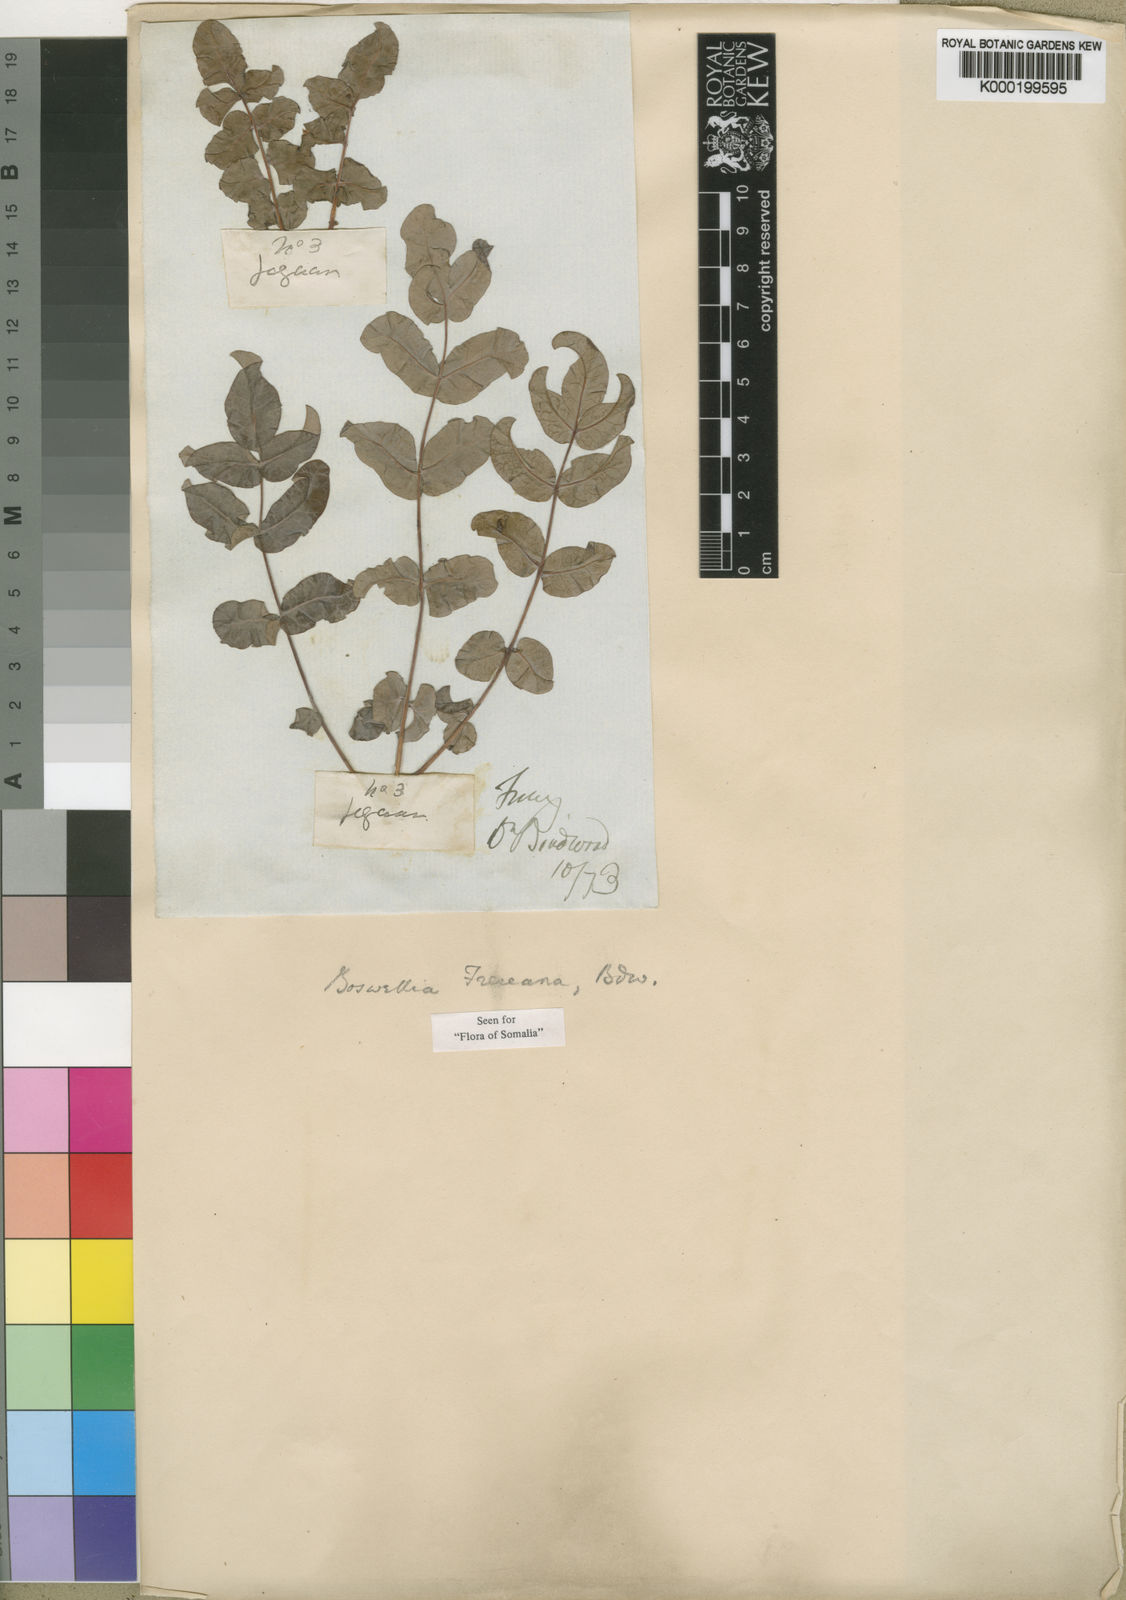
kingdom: Plantae
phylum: Tracheophyta
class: Magnoliopsida
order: Sapindales
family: Burseraceae
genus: Boswellia
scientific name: Boswellia frereana
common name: African elemi
